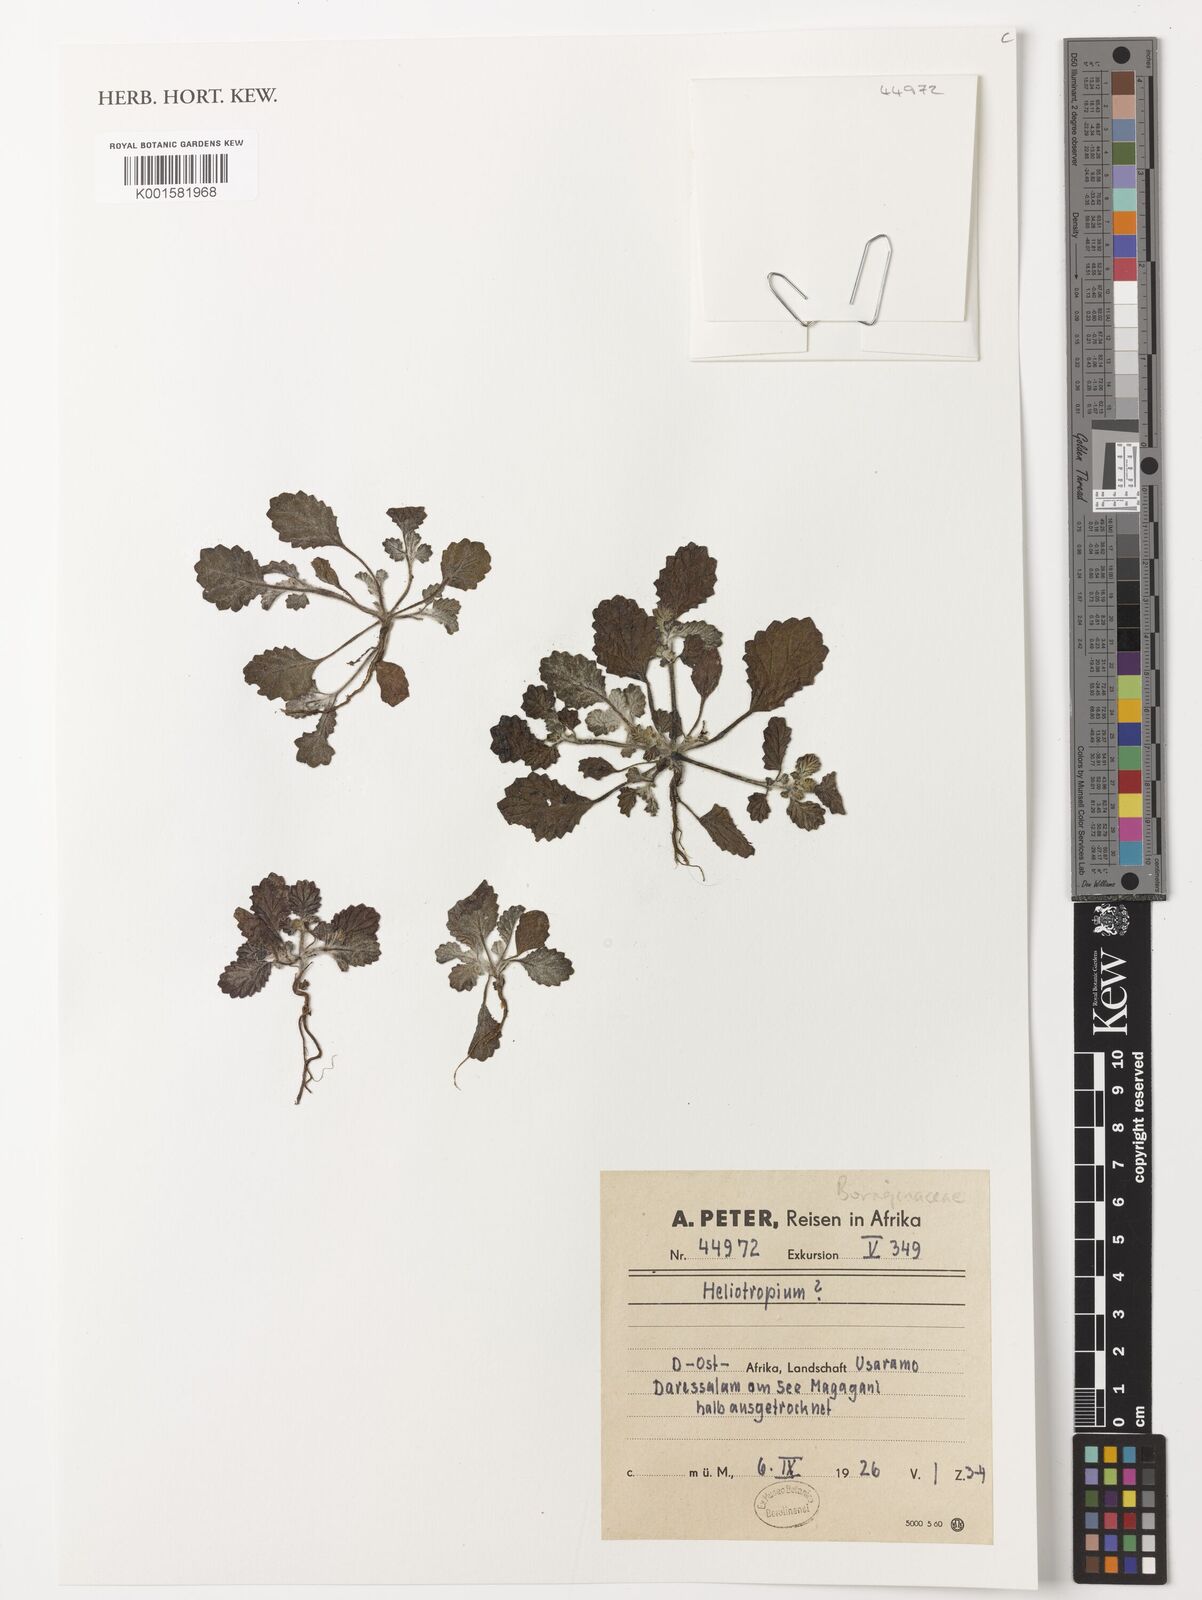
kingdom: Plantae
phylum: Tracheophyta
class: Magnoliopsida
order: Boraginales
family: Heliotropiaceae
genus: Heliotropium
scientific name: Heliotropium
